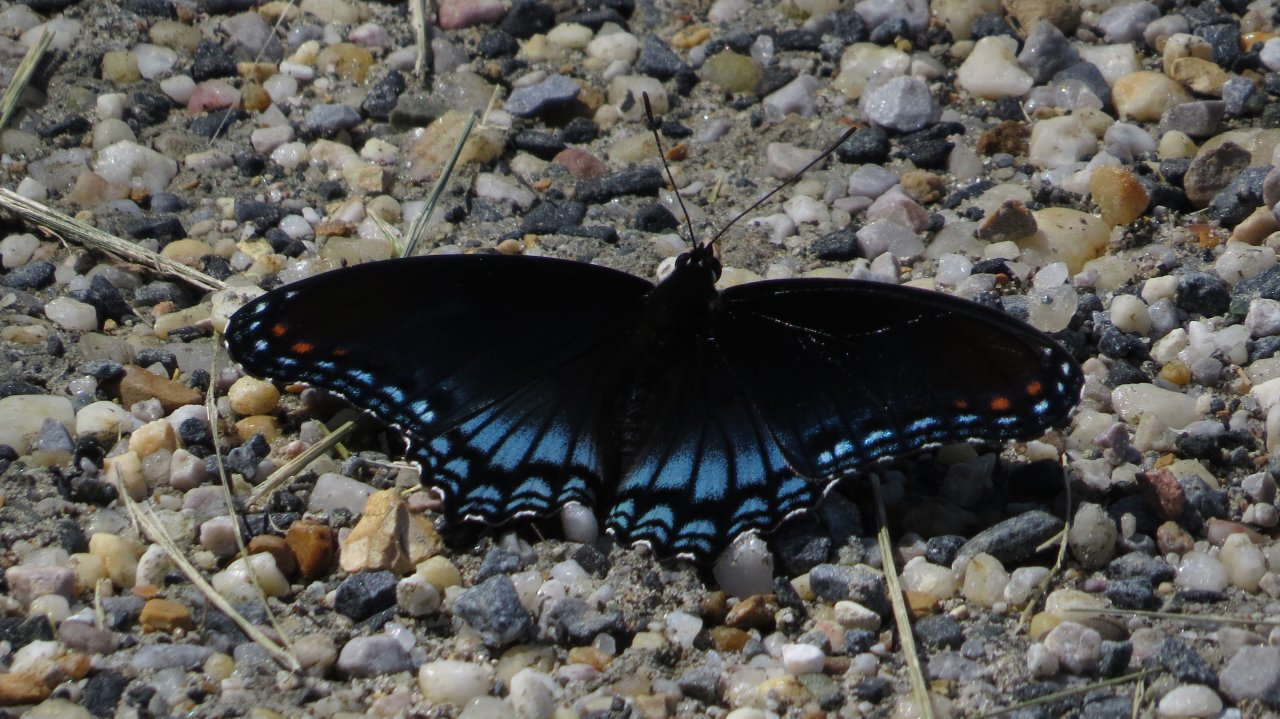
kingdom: Animalia
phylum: Arthropoda
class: Insecta
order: Lepidoptera
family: Nymphalidae
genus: Limenitis
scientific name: Limenitis astyanax
